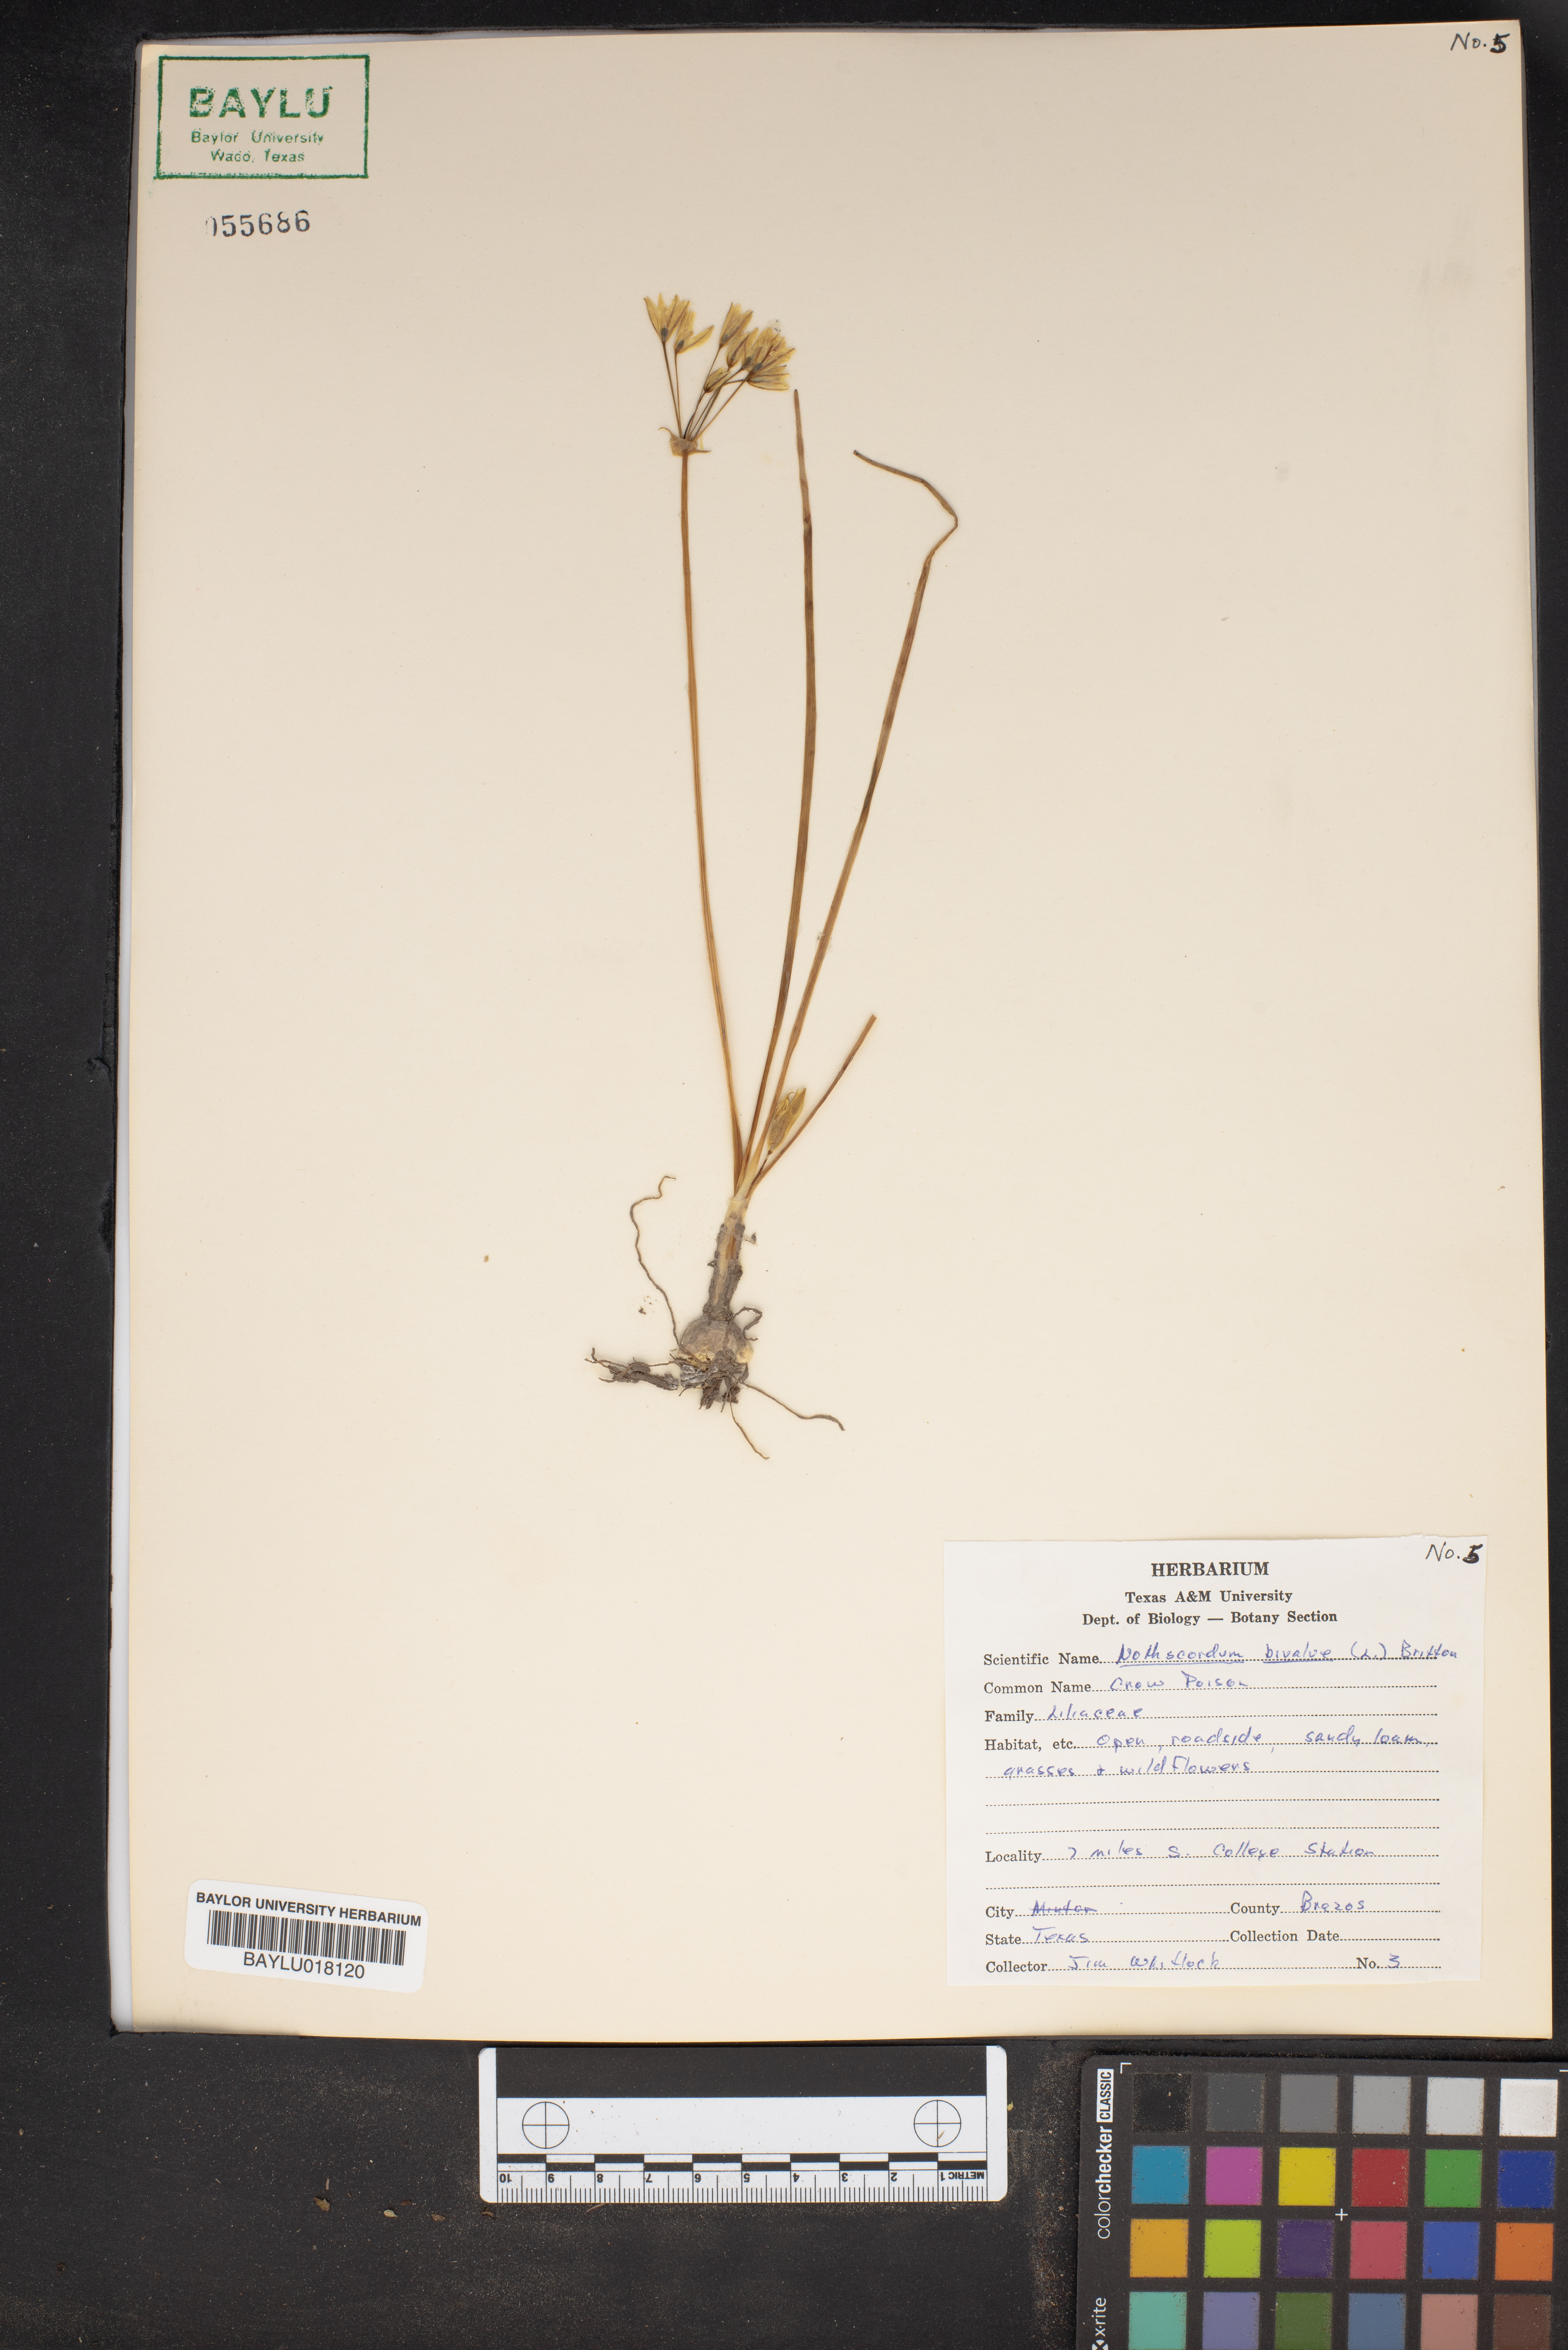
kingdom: Plantae
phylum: Tracheophyta
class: Liliopsida
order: Asparagales
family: Amaryllidaceae
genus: Nothoscordum
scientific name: Nothoscordum bivalve
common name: Crow-poison
